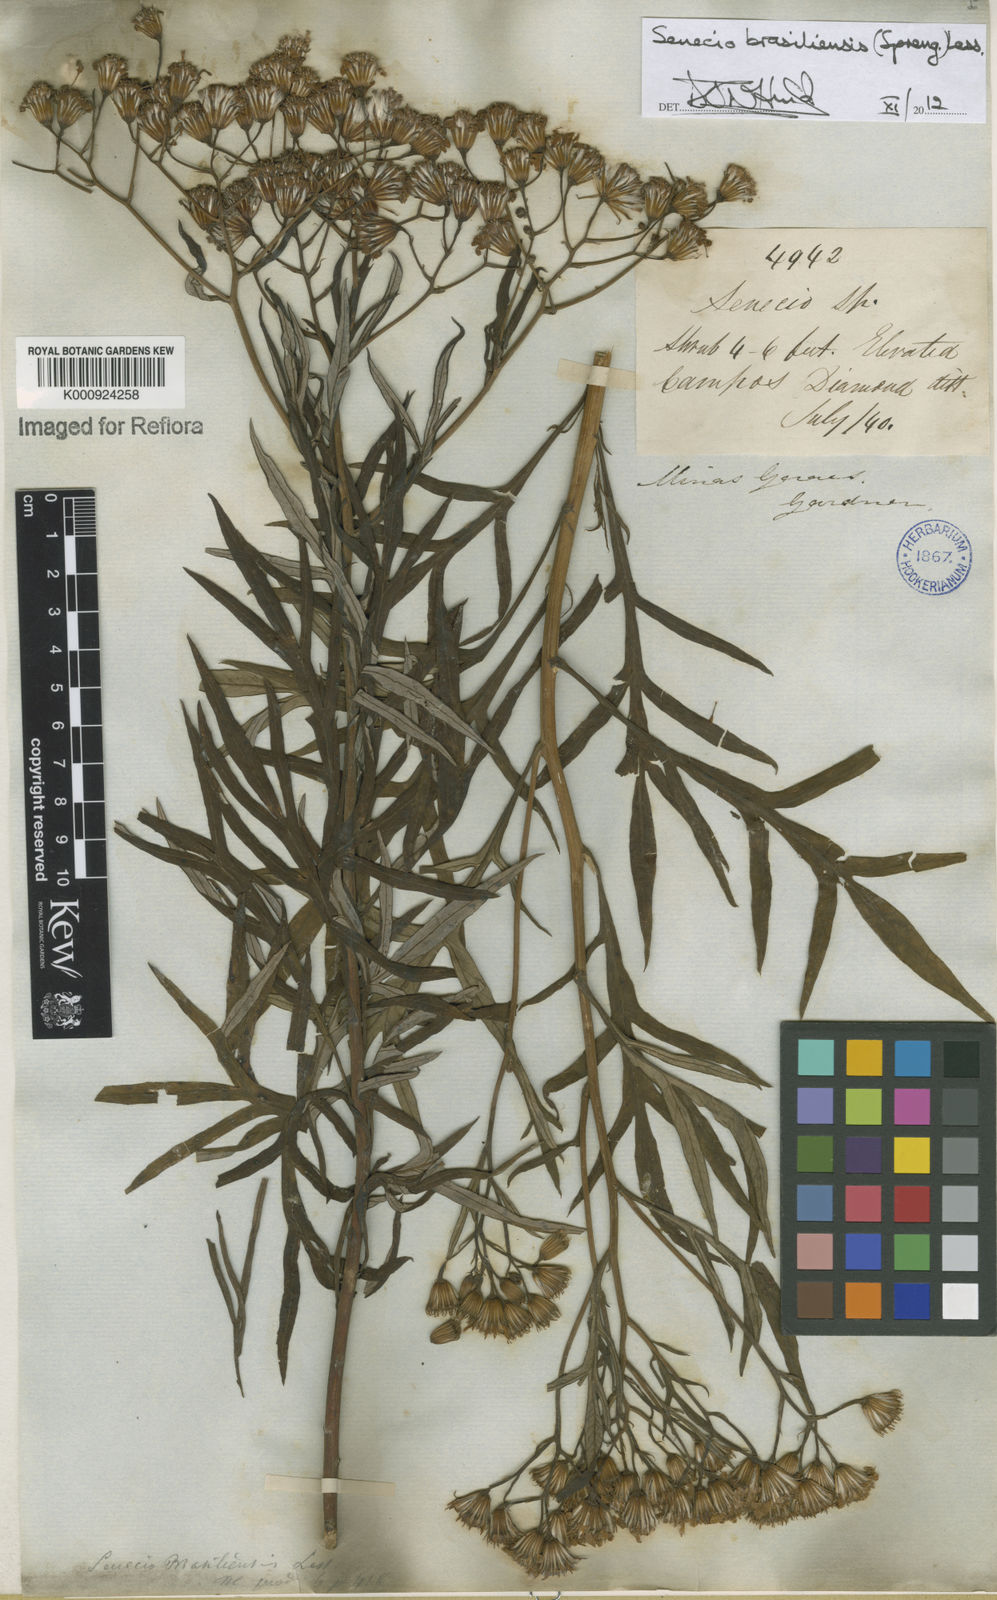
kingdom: Plantae
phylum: Tracheophyta
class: Magnoliopsida
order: Asterales
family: Asteraceae
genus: Senecio
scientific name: Senecio brasiliensis
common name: Hemp-leaf ragwort
